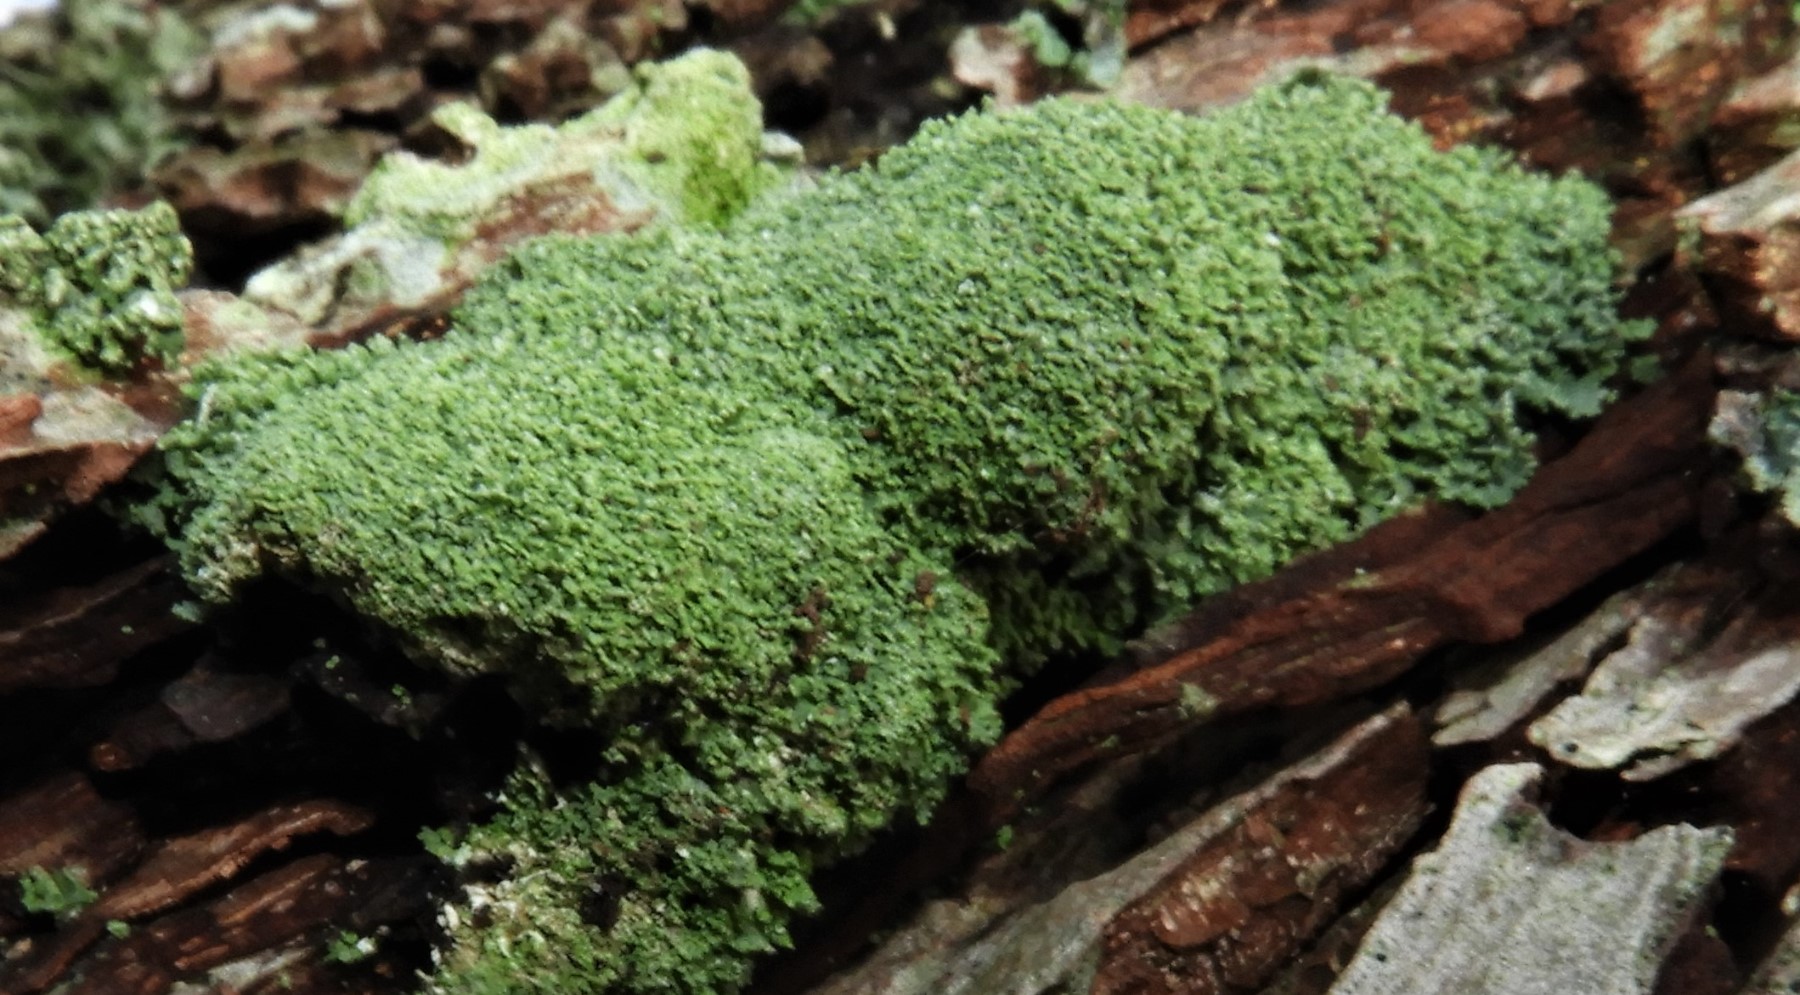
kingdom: Fungi
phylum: Ascomycota
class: Lecanoromycetes
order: Lecanorales
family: Cladoniaceae
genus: Cladonia
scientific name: Cladonia
